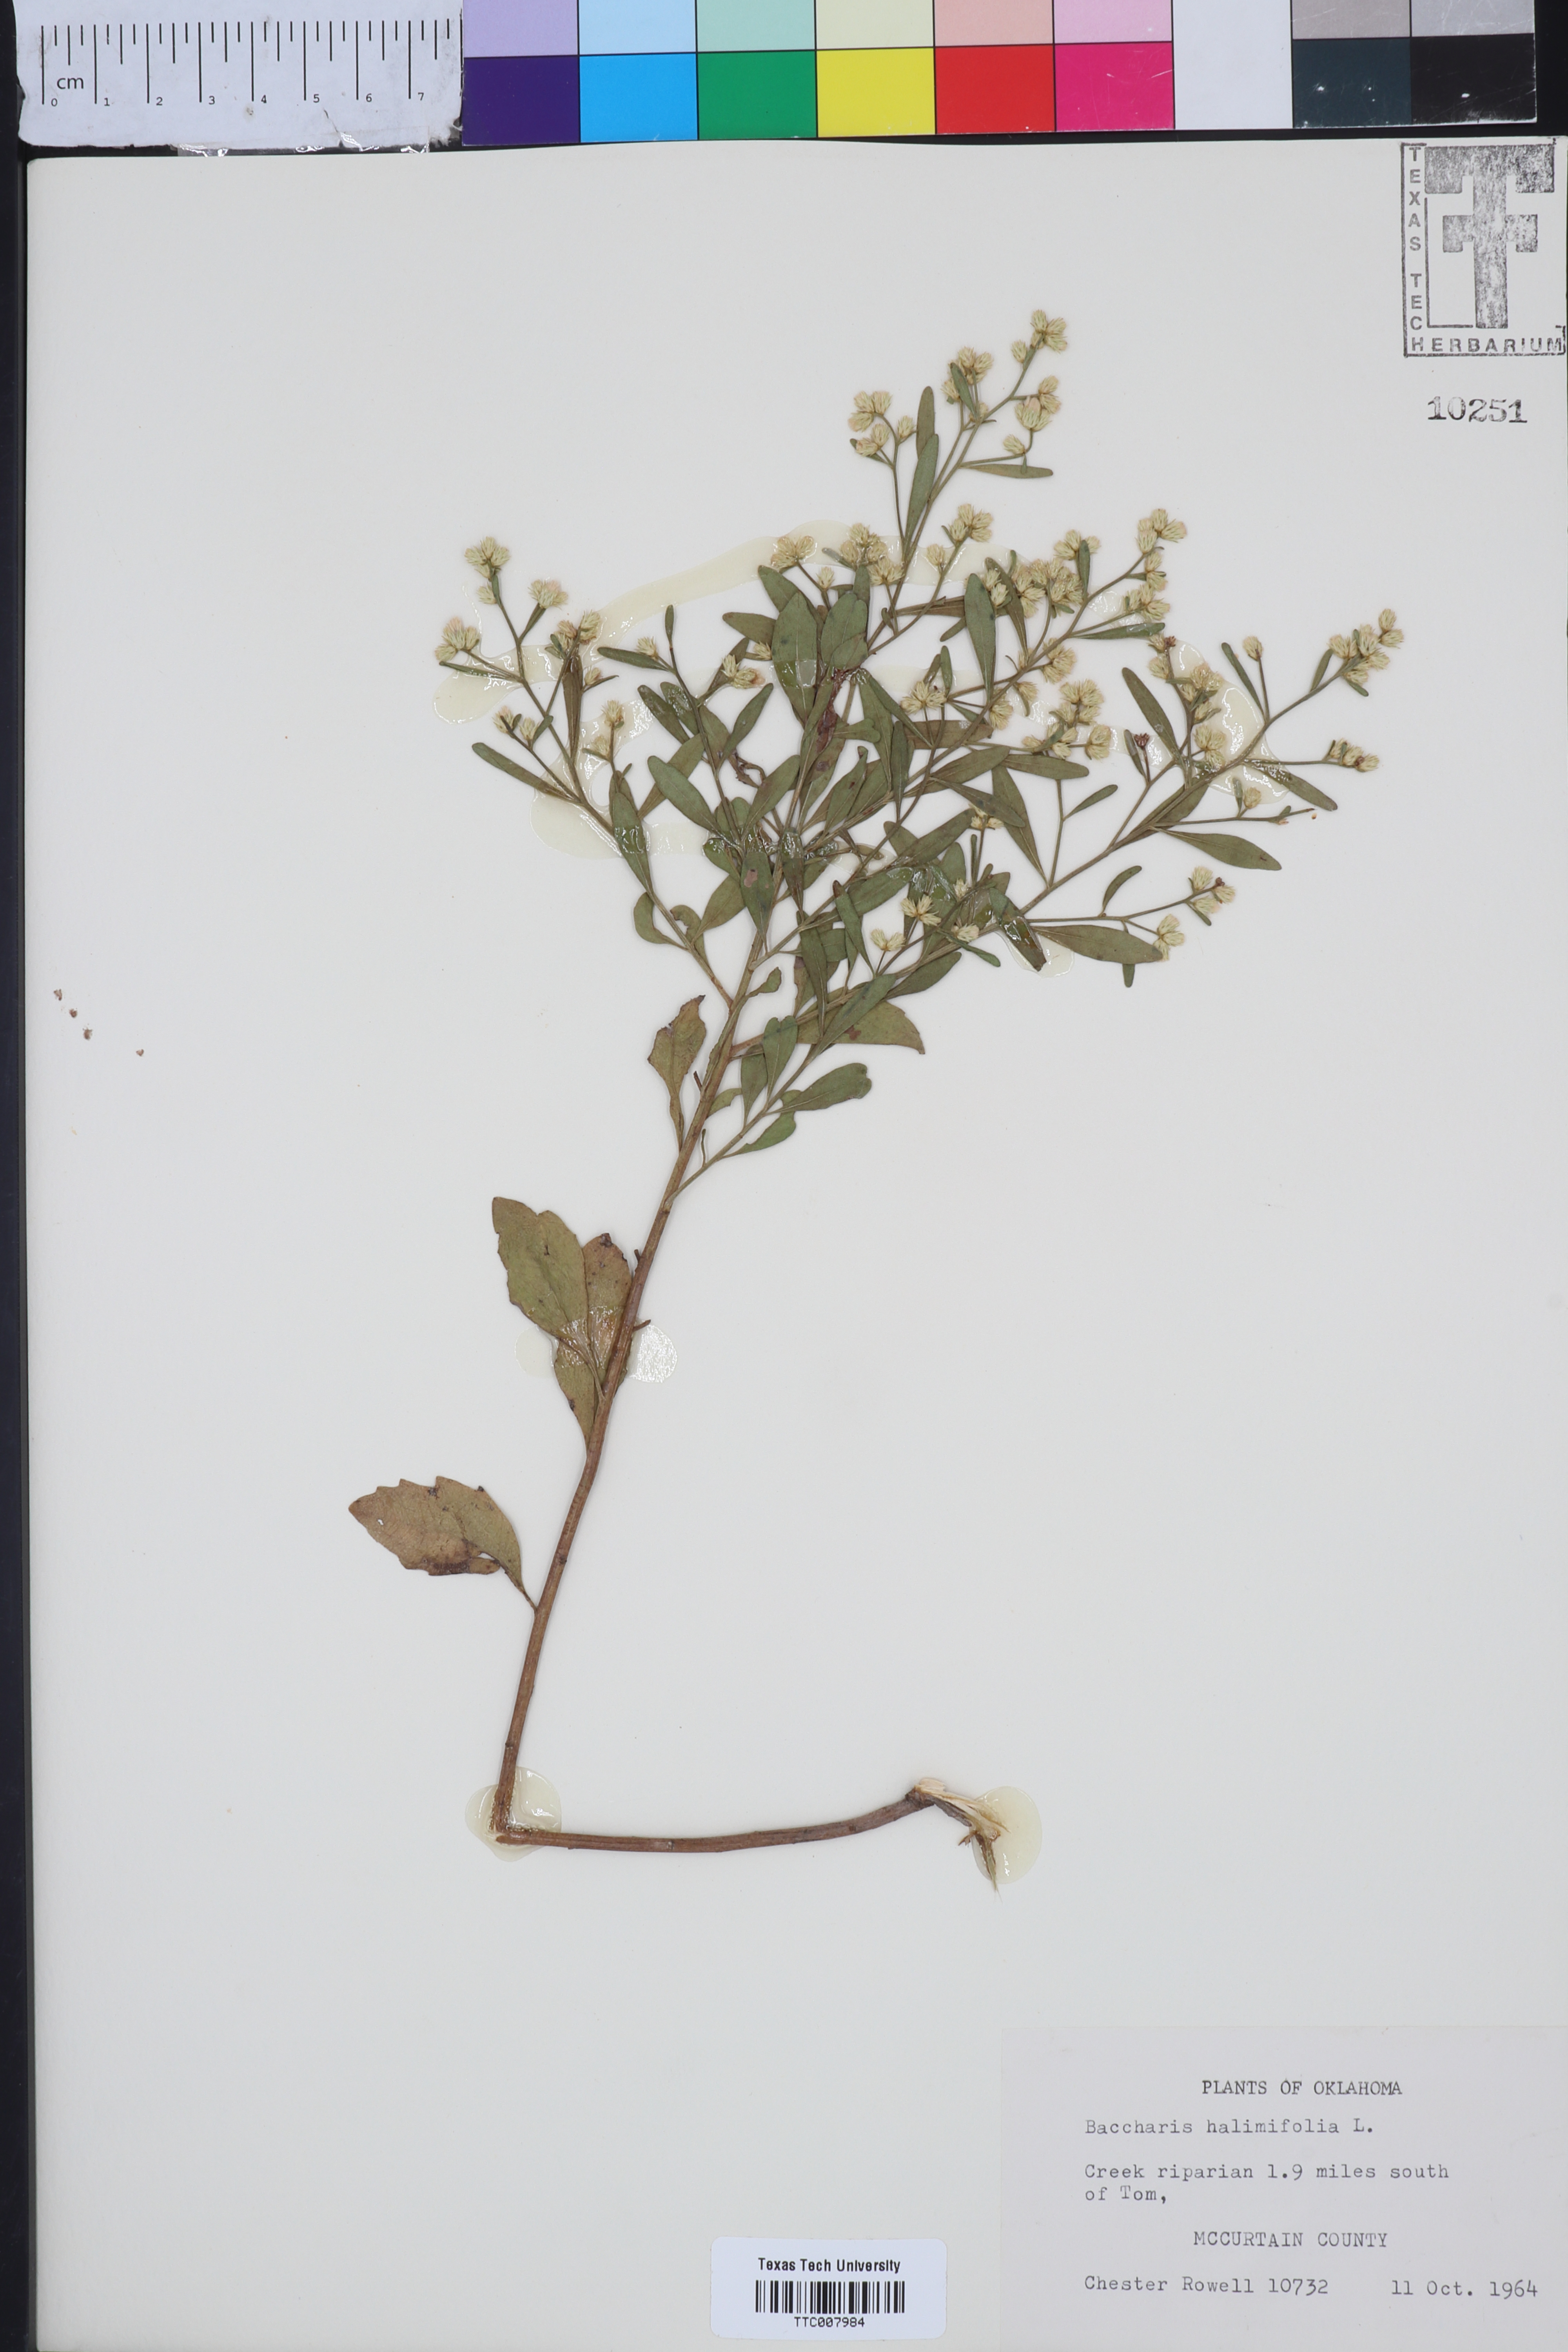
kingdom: Plantae
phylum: Tracheophyta
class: Magnoliopsida
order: Asterales
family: Asteraceae
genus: Nidorella
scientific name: Nidorella ivifolia
